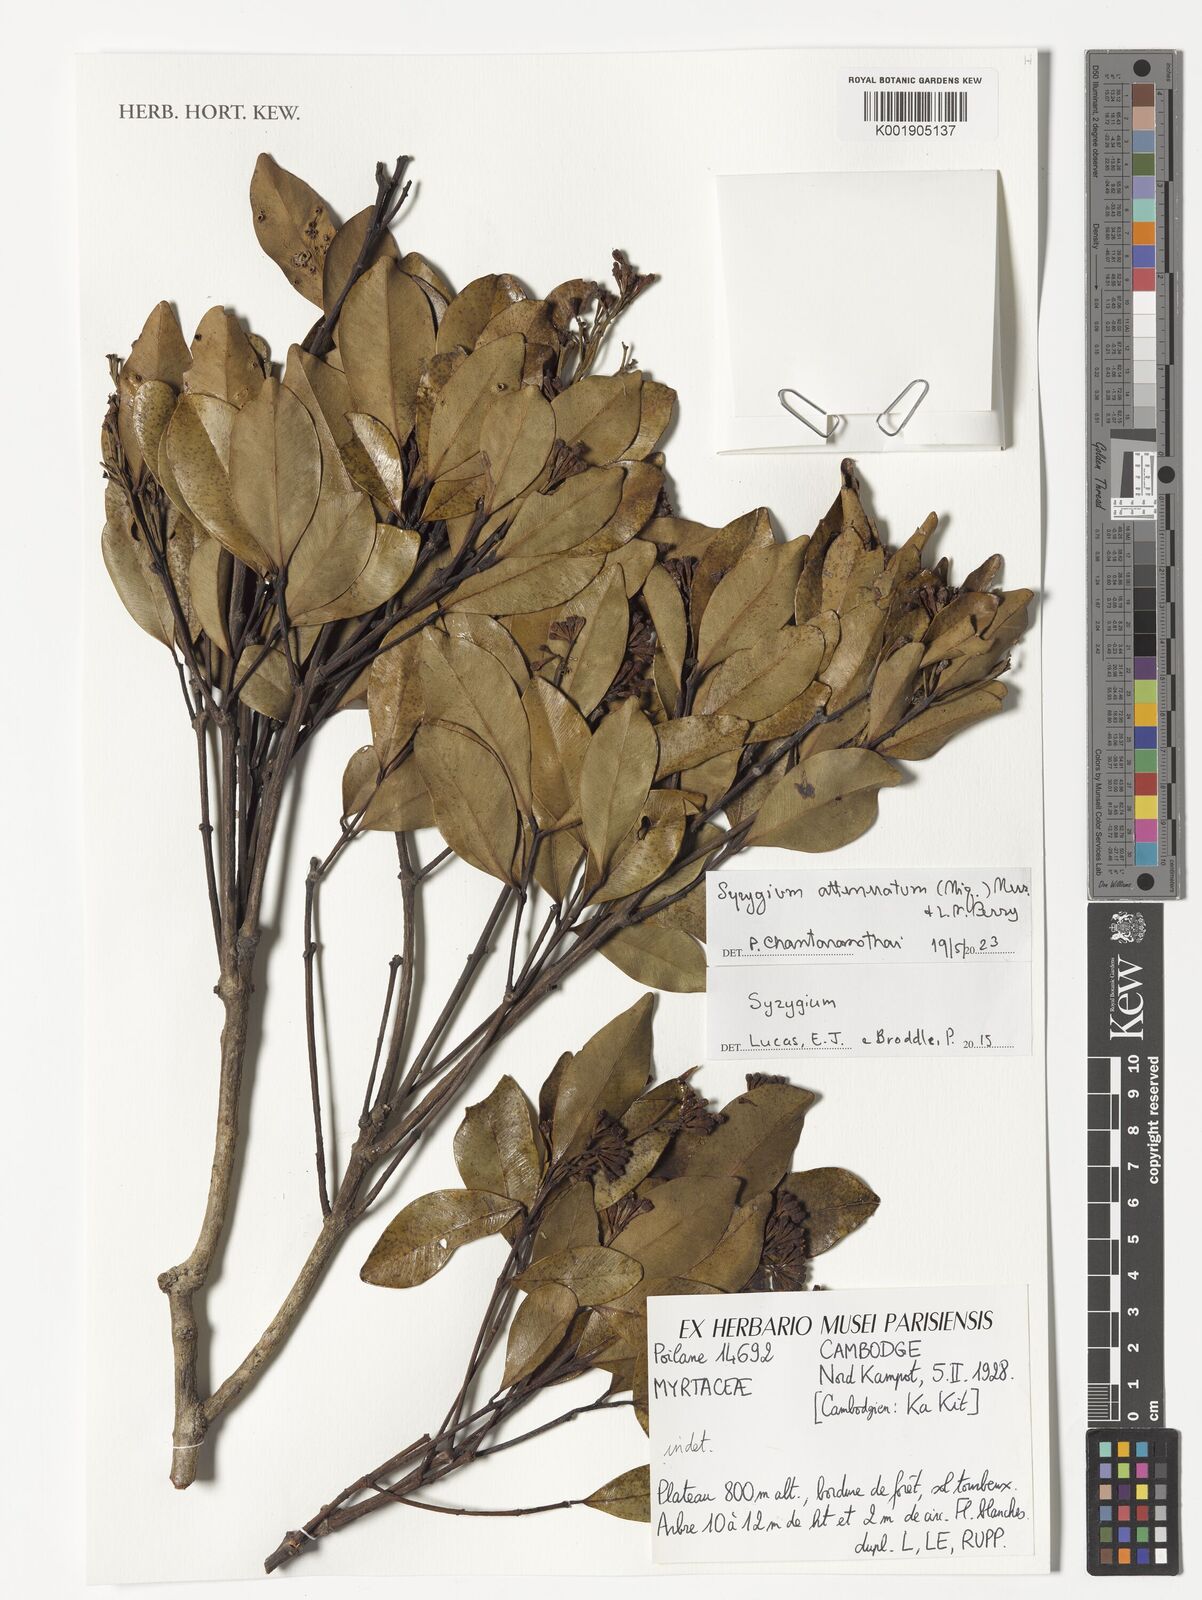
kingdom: Plantae
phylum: Tracheophyta
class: Magnoliopsida
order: Myrtales
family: Myrtaceae
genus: Syzygium
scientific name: Syzygium attenuatum
